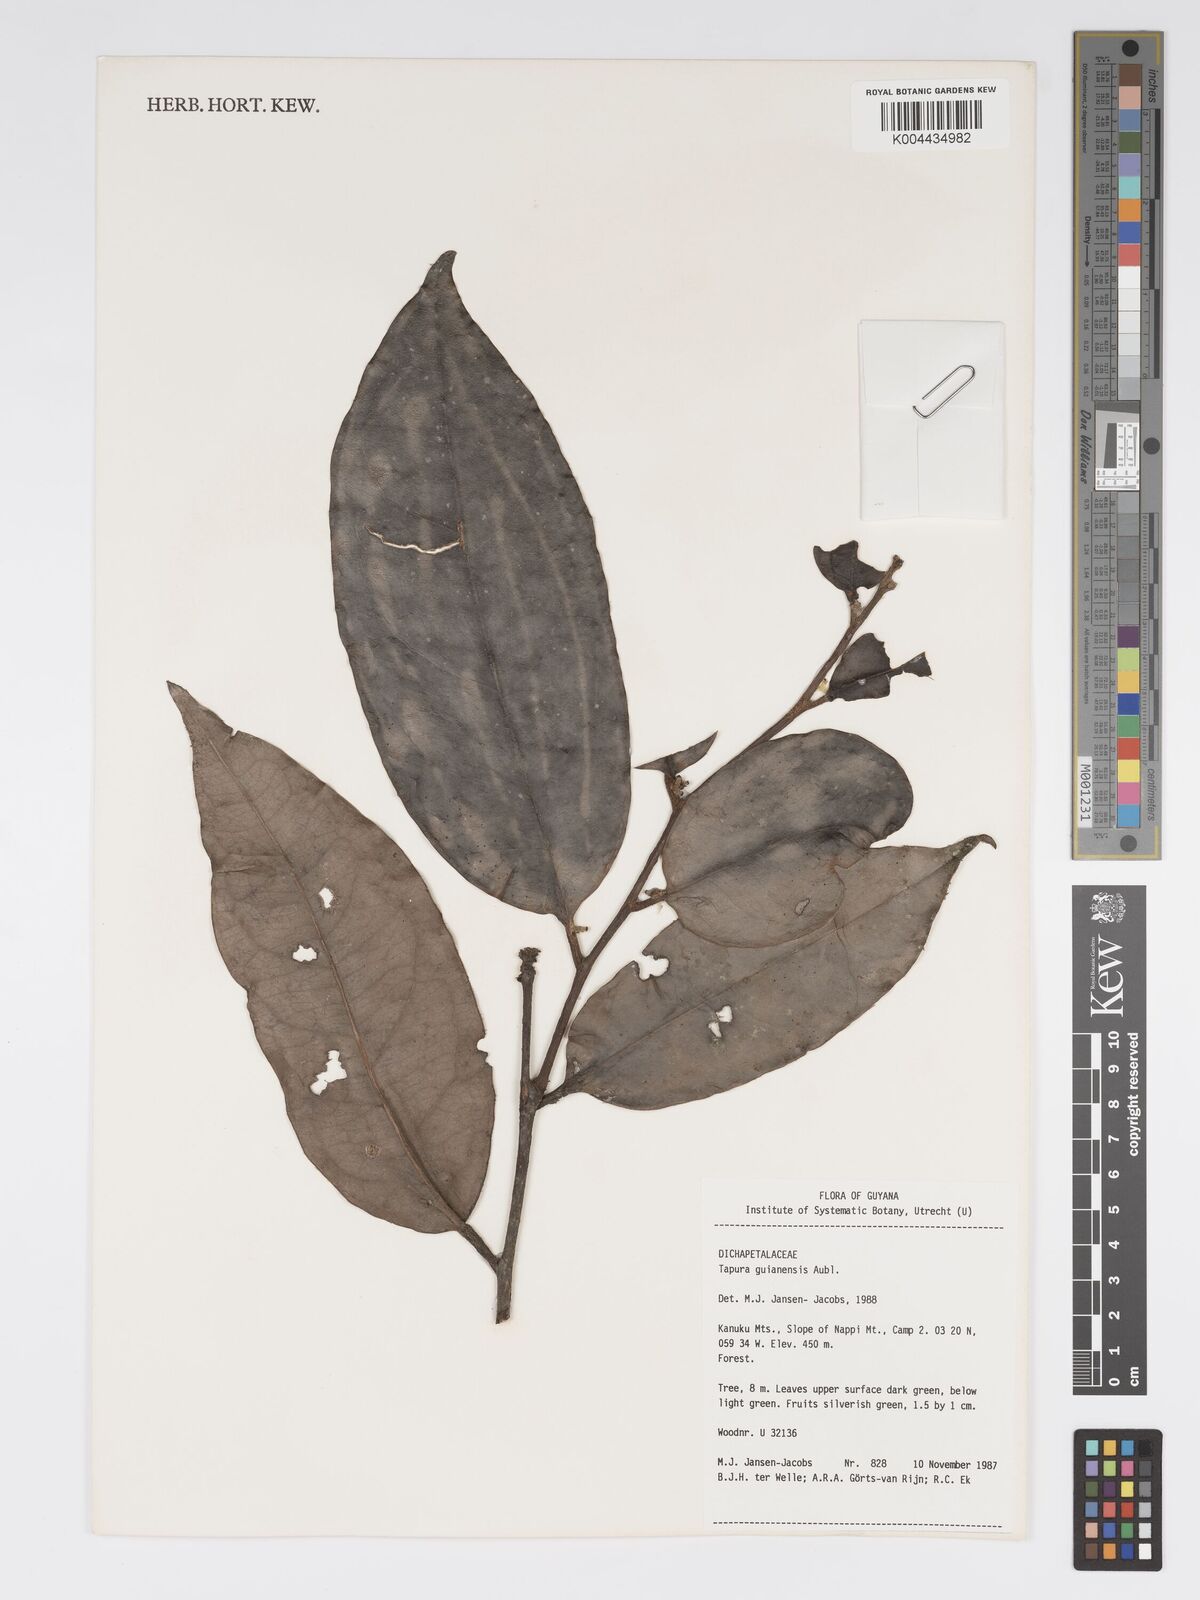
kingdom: Plantae
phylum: Tracheophyta
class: Magnoliopsida
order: Malpighiales
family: Dichapetalaceae
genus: Tapura
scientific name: Tapura guianensis
